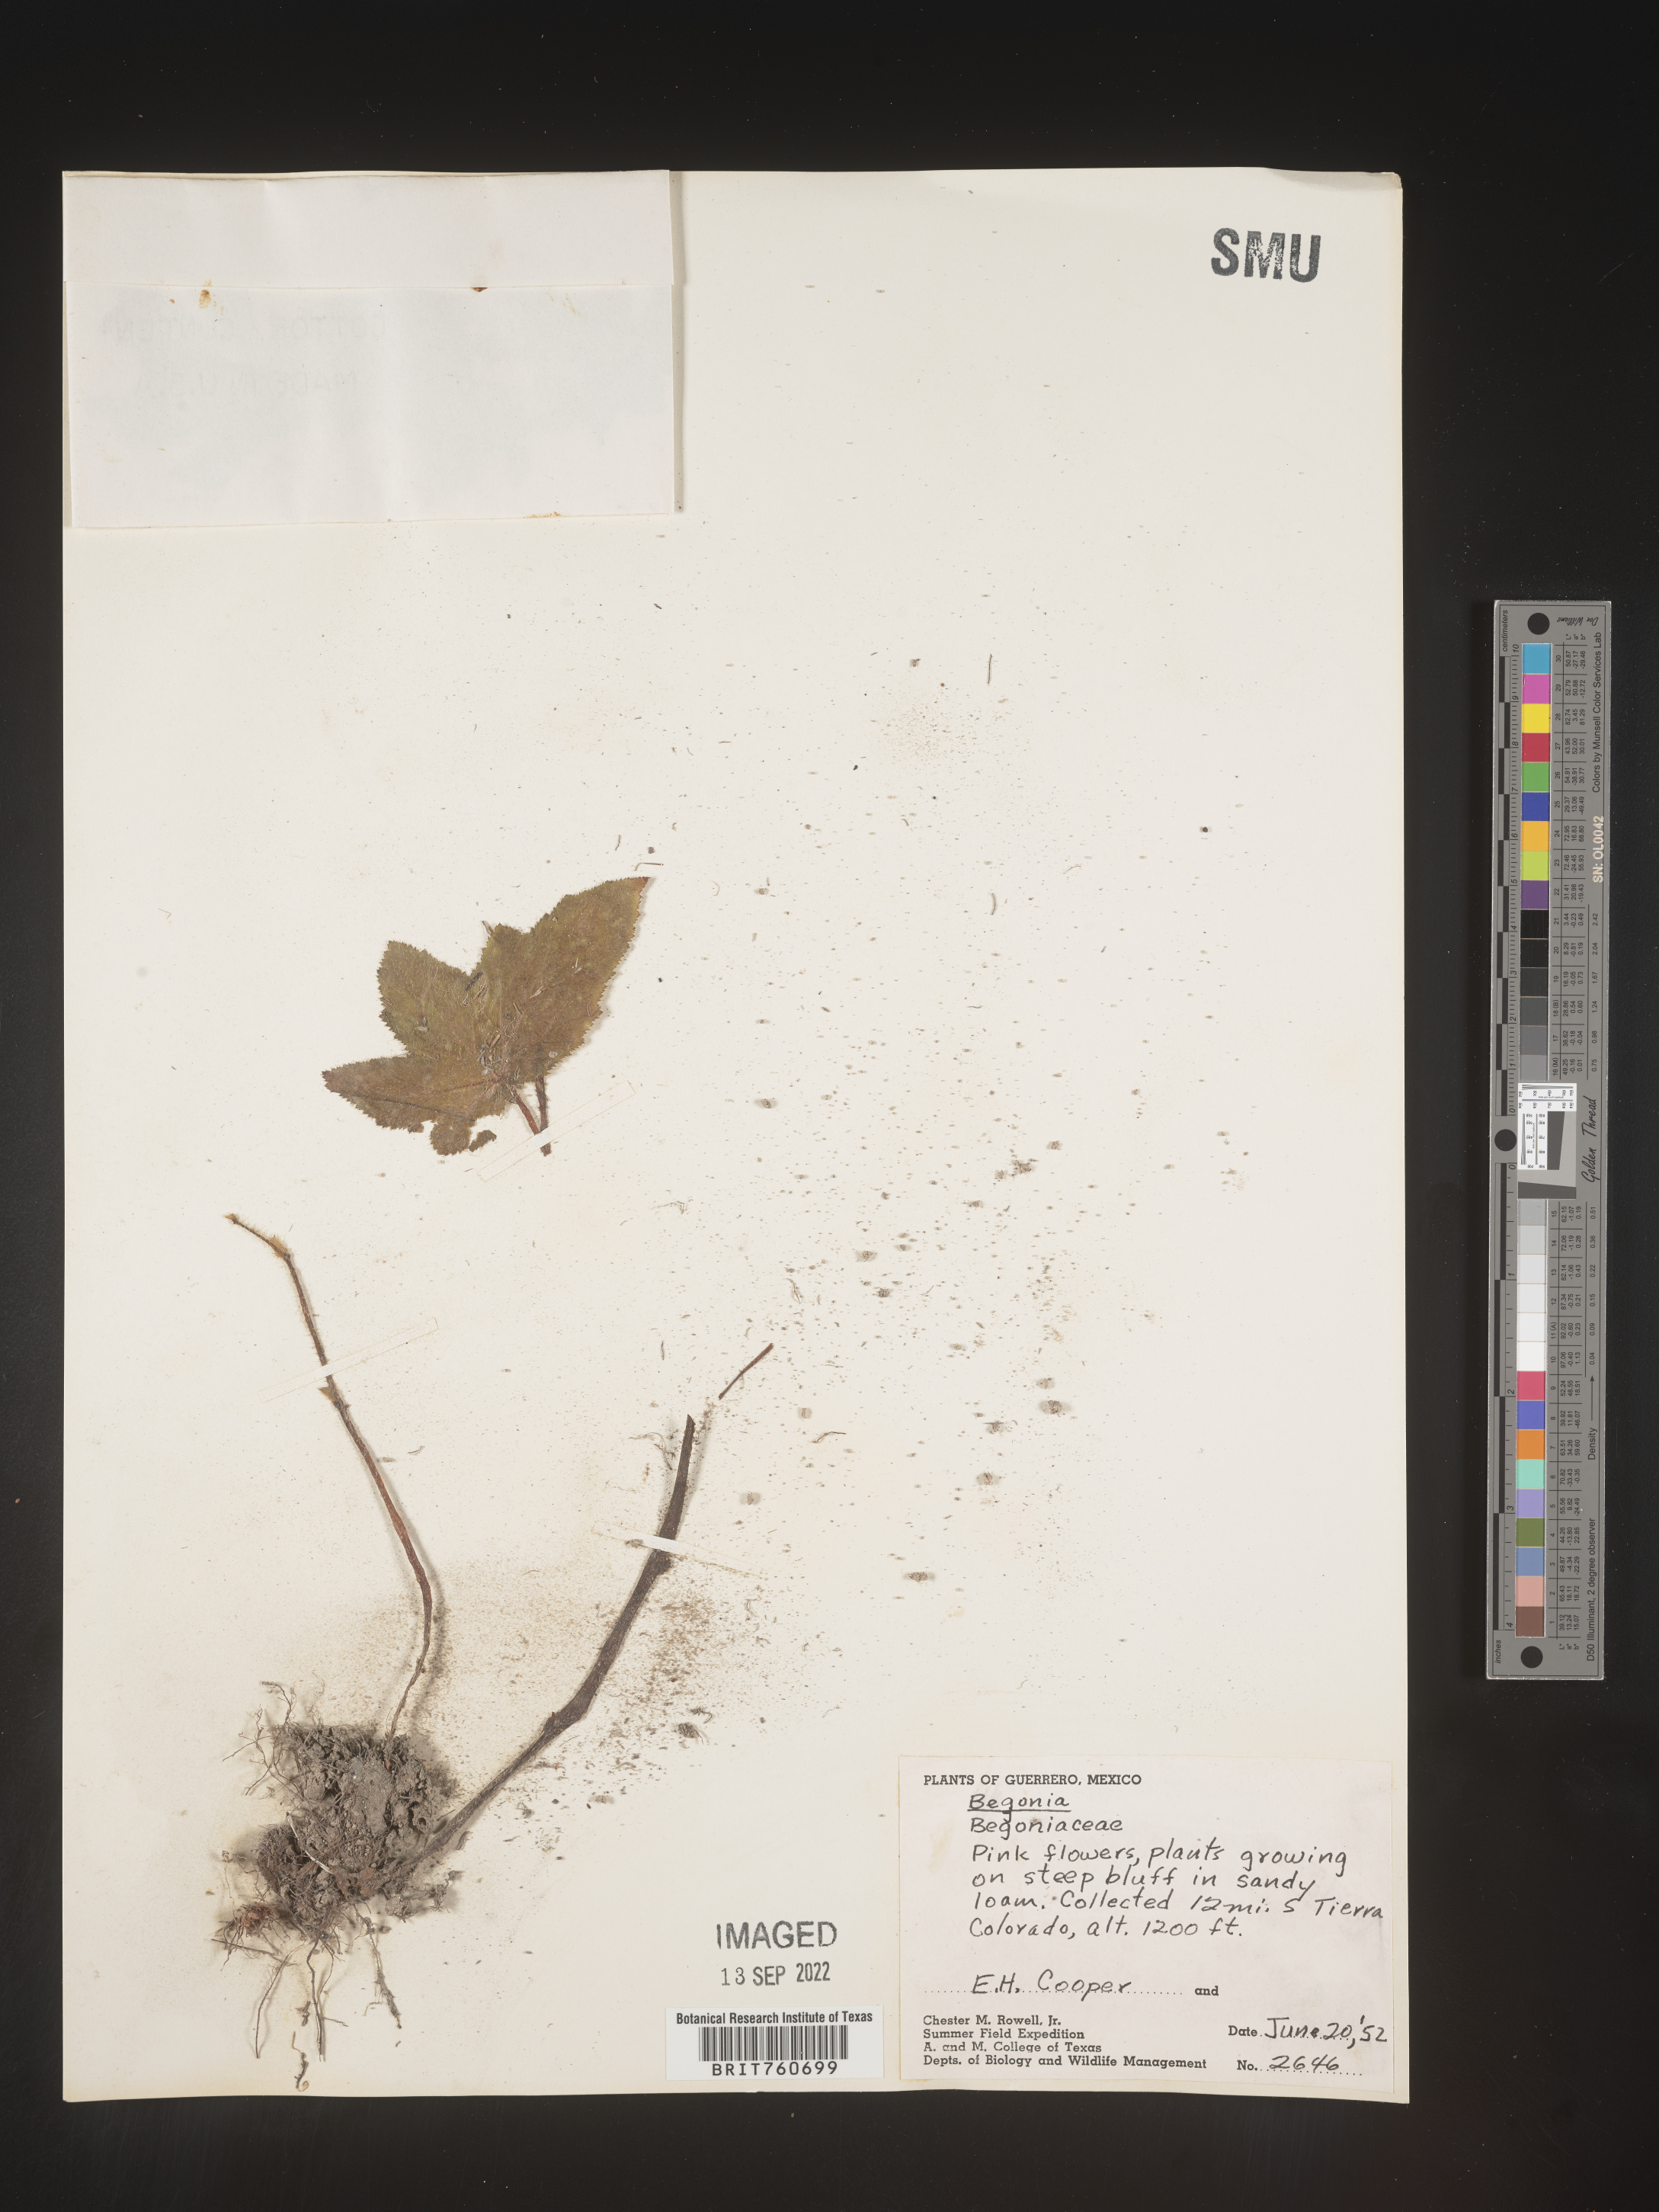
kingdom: Plantae
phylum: Tracheophyta
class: Magnoliopsida
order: Cucurbitales
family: Begoniaceae
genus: Begonia
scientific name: Begonia
